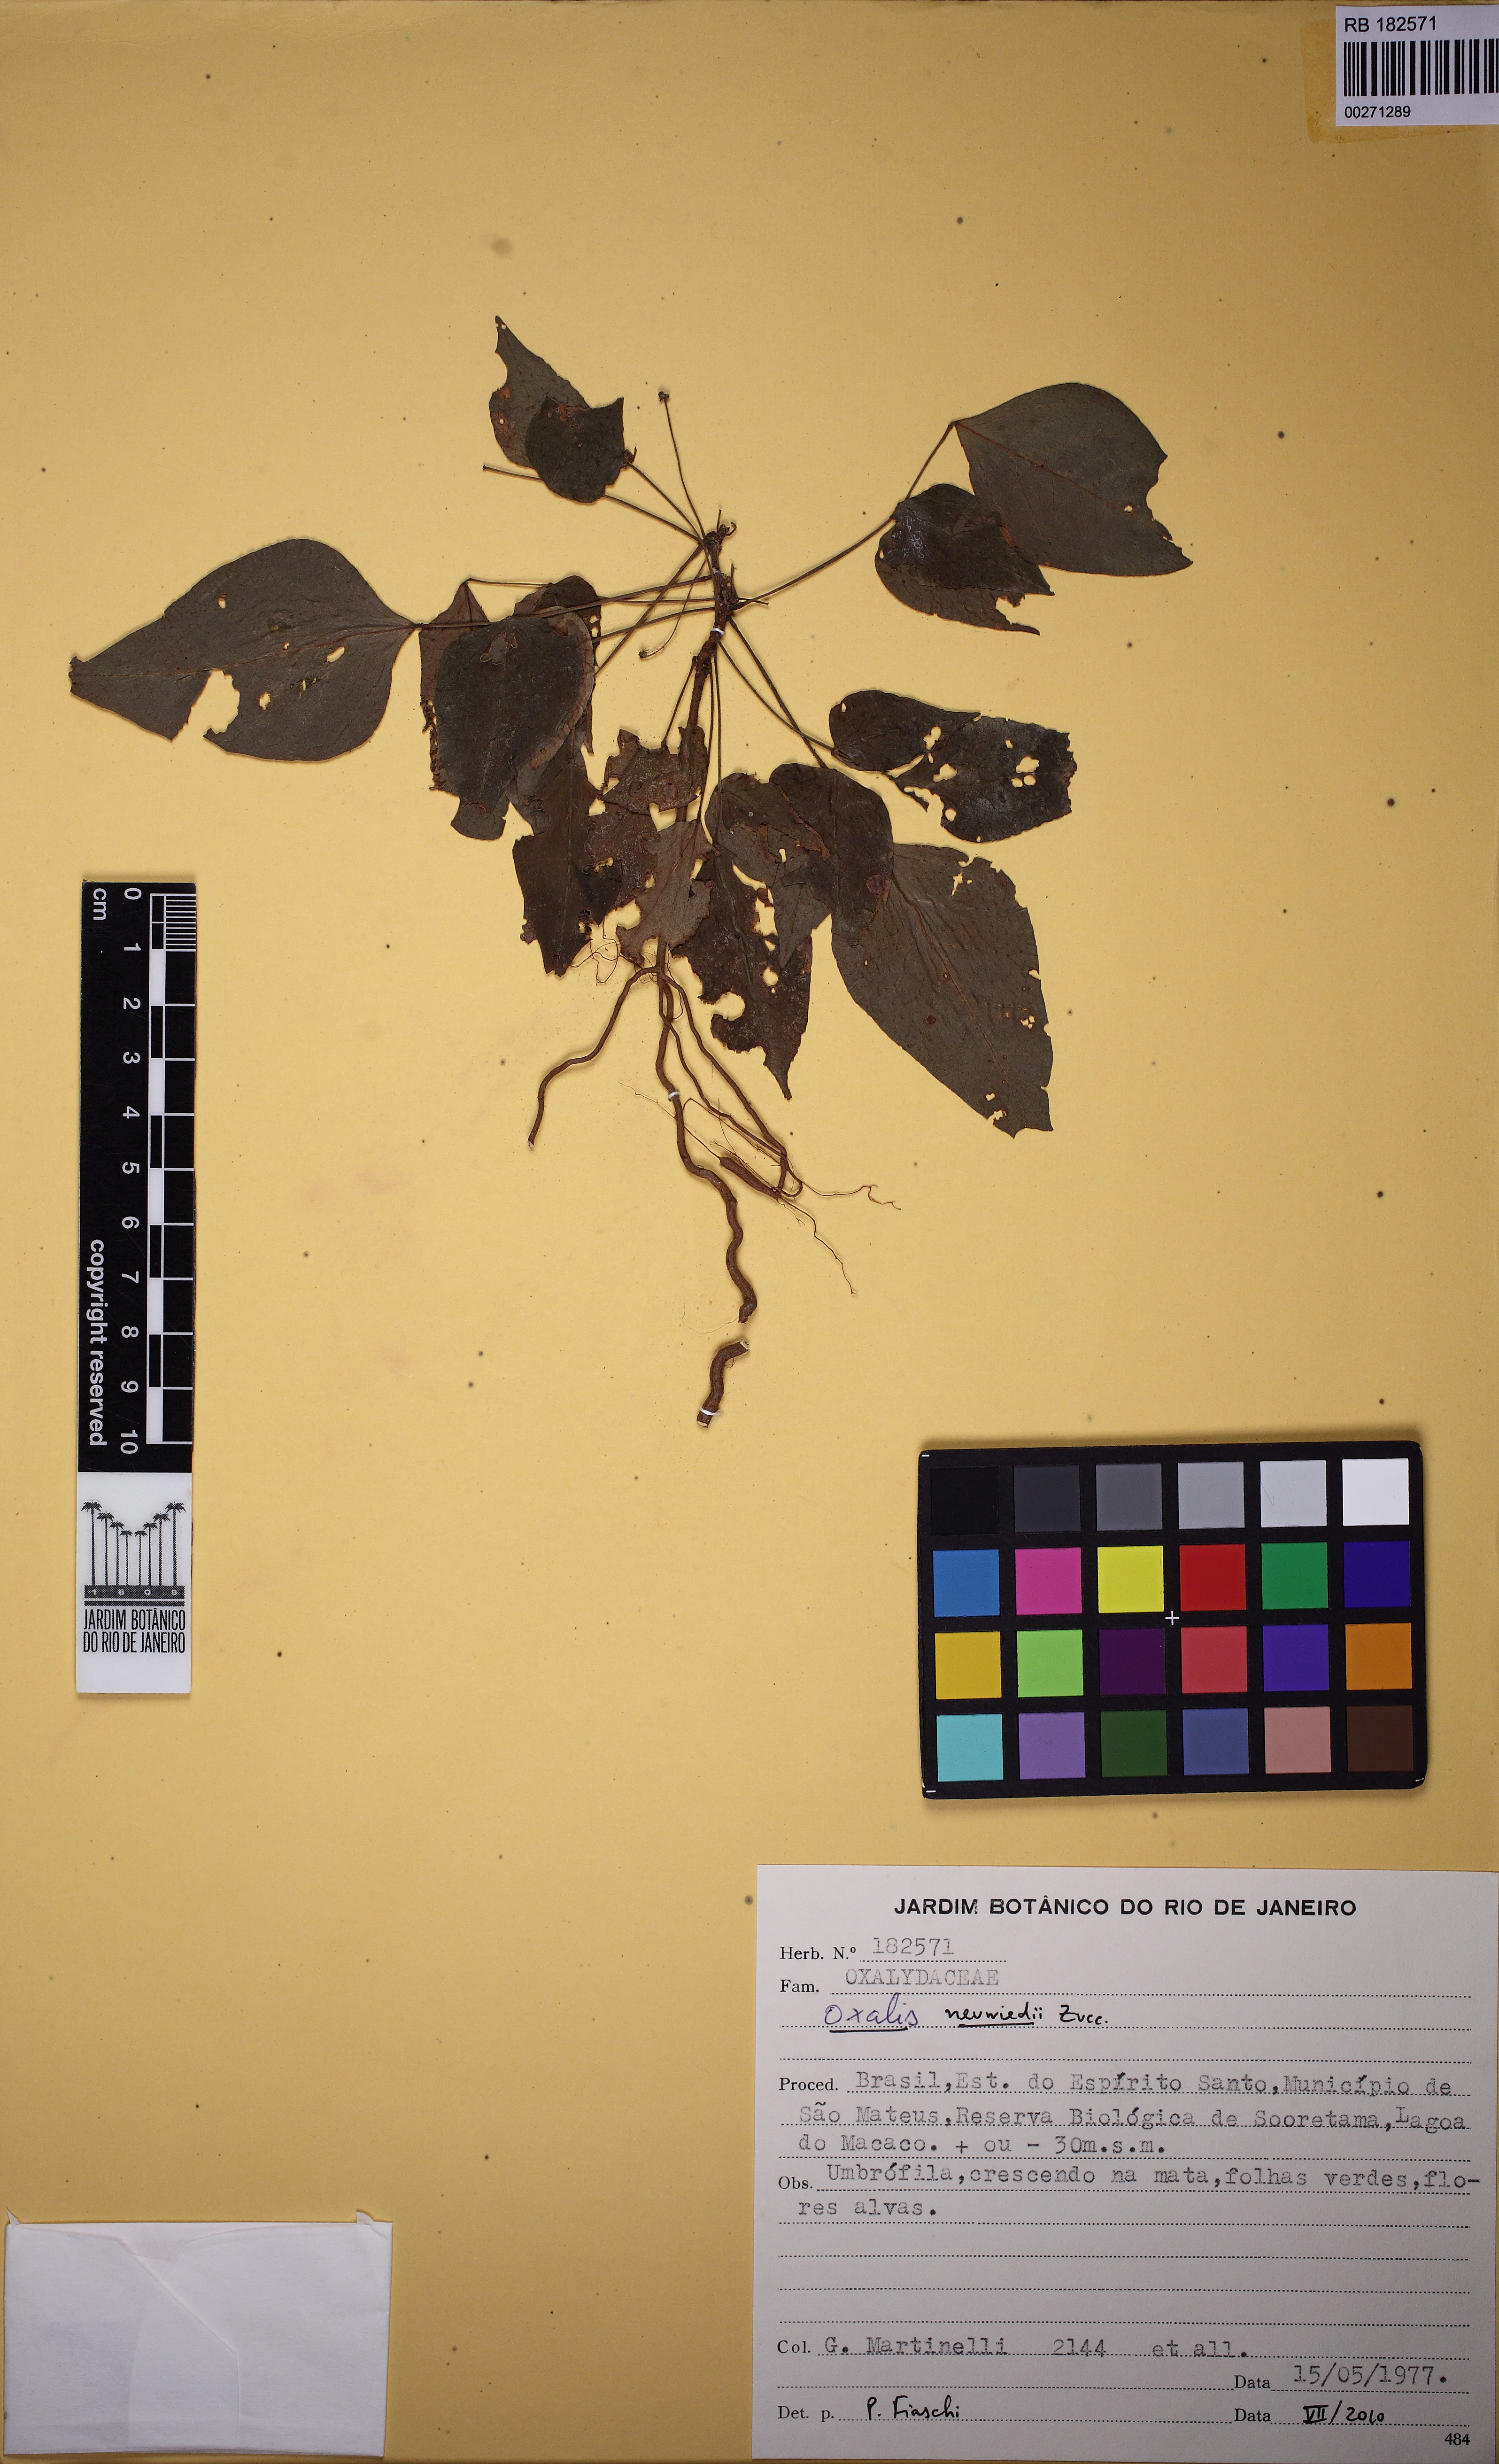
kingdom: Plantae
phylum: Tracheophyta
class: Magnoliopsida
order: Oxalidales
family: Oxalidaceae
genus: Oxalis
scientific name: Oxalis neuwiedii
